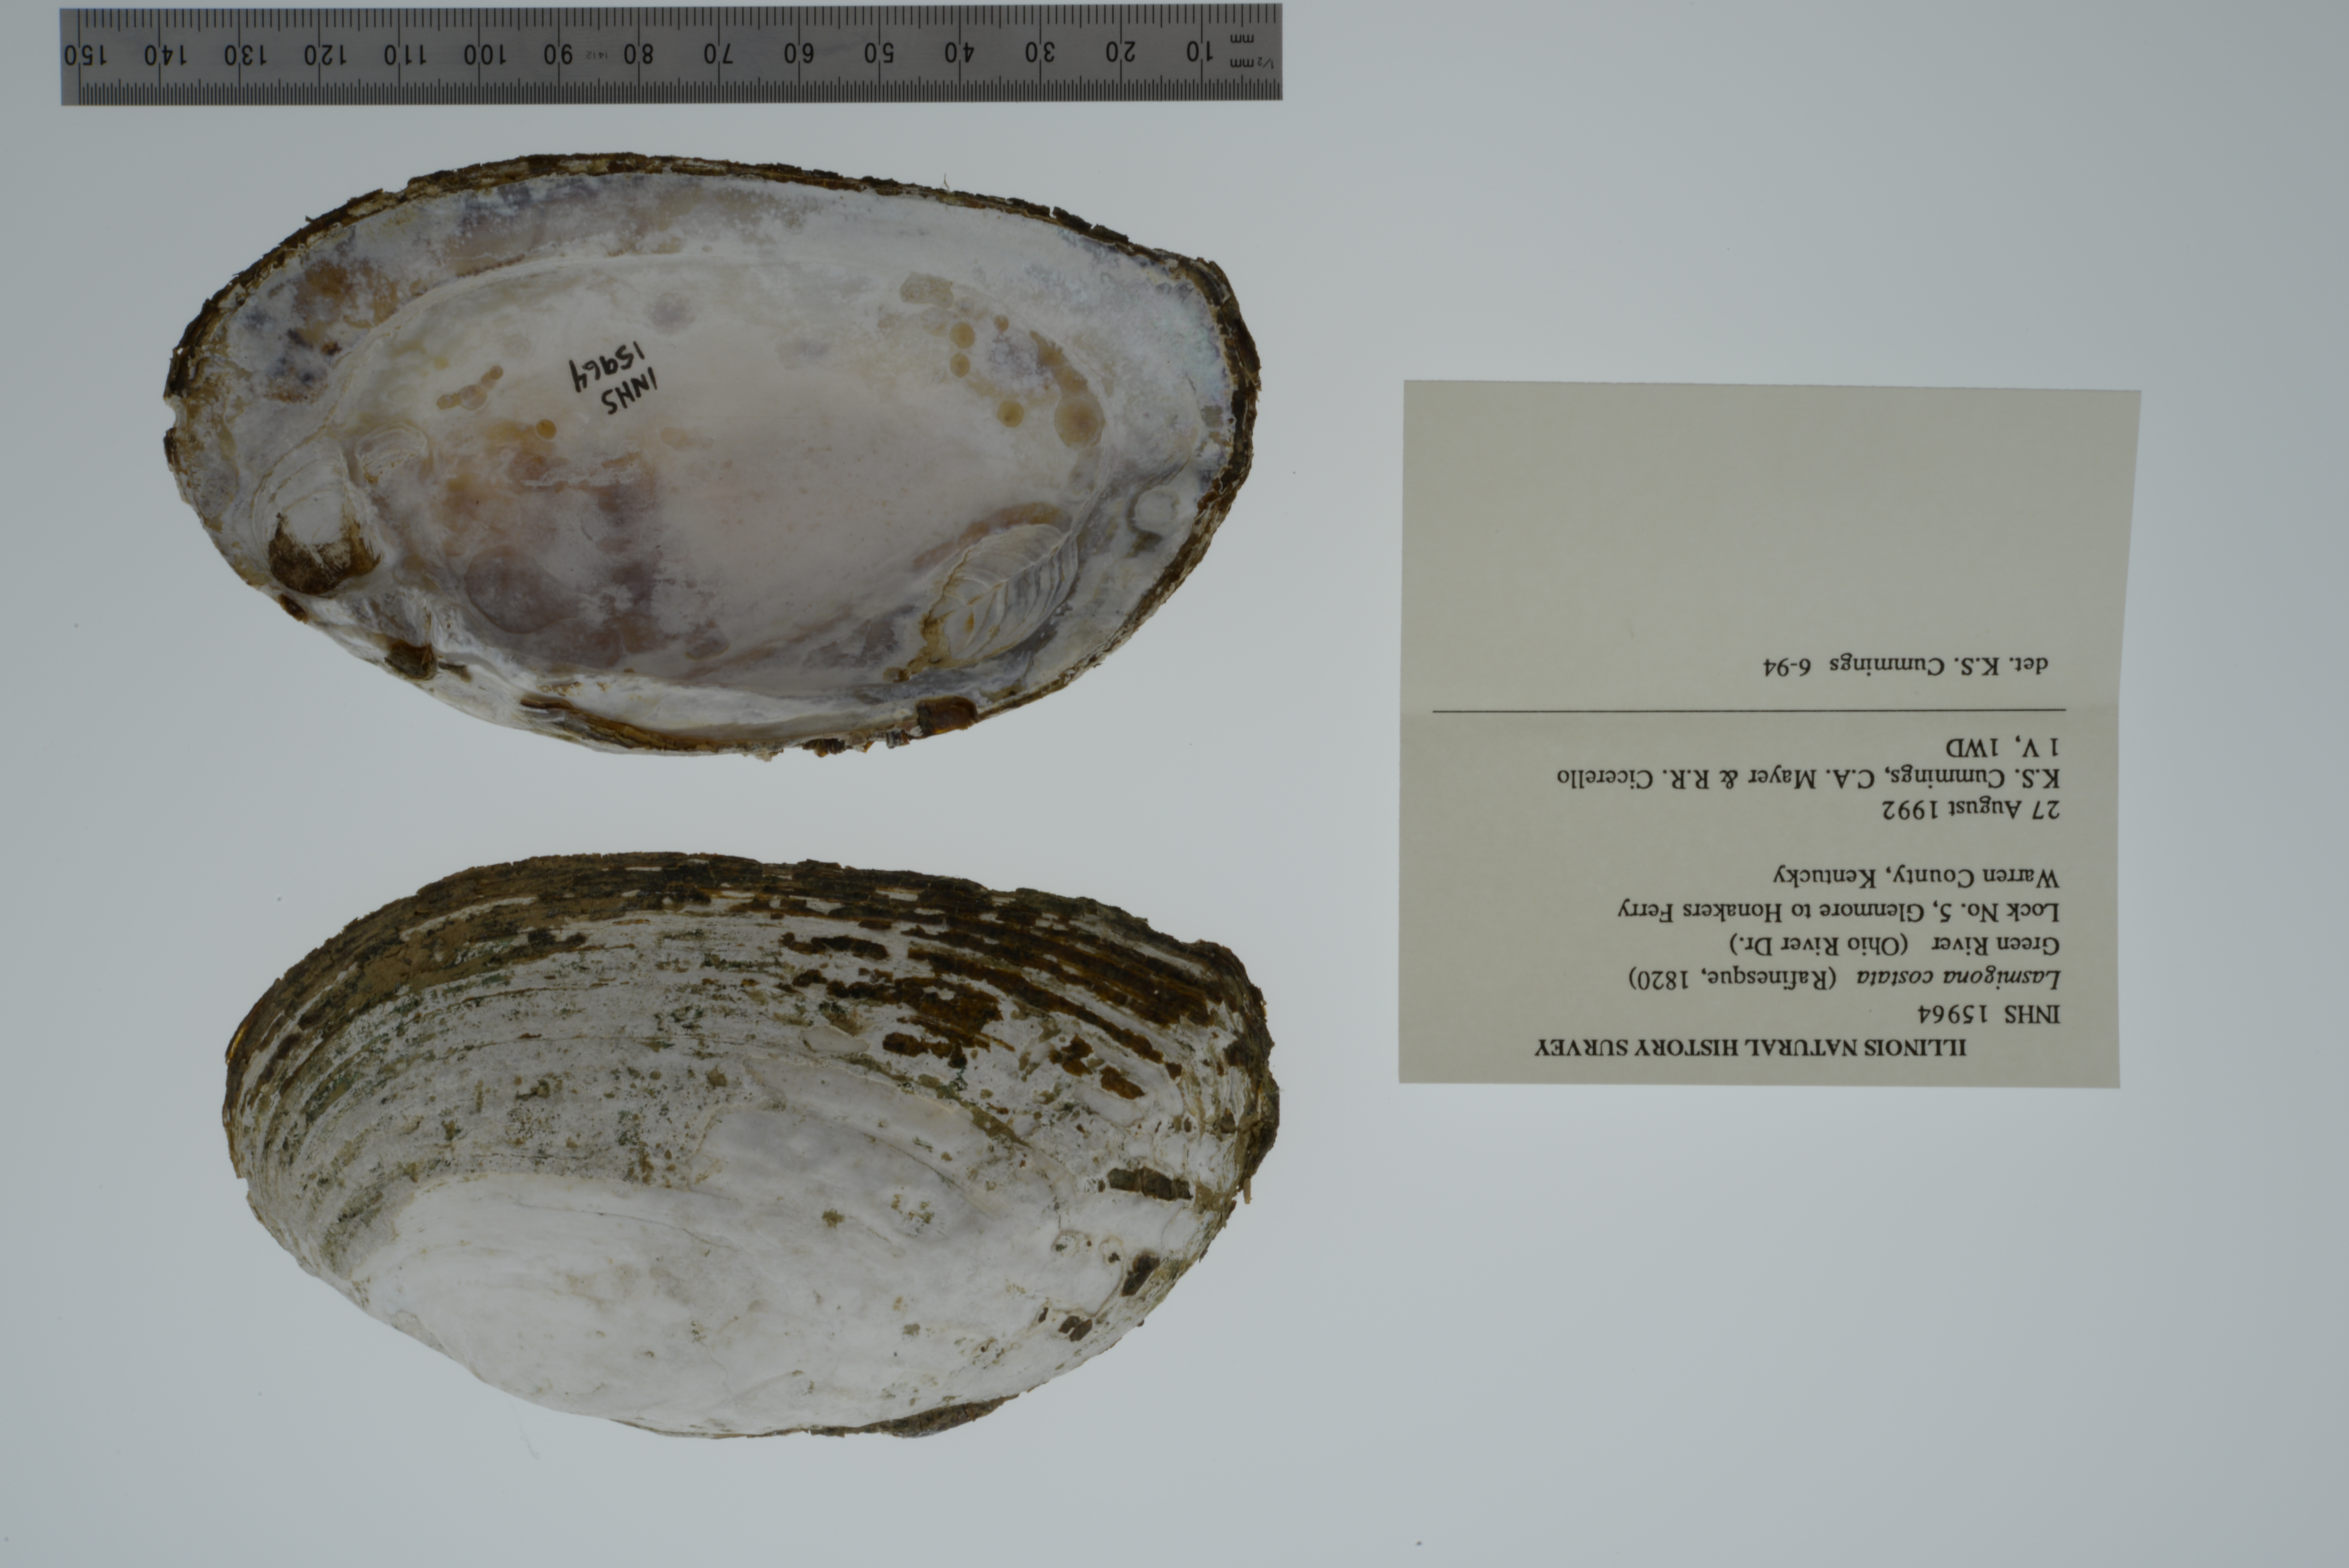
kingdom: Animalia
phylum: Mollusca
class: Bivalvia
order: Unionida
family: Unionidae
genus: Lasmigona
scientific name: Lasmigona costata
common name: Flutedshell
